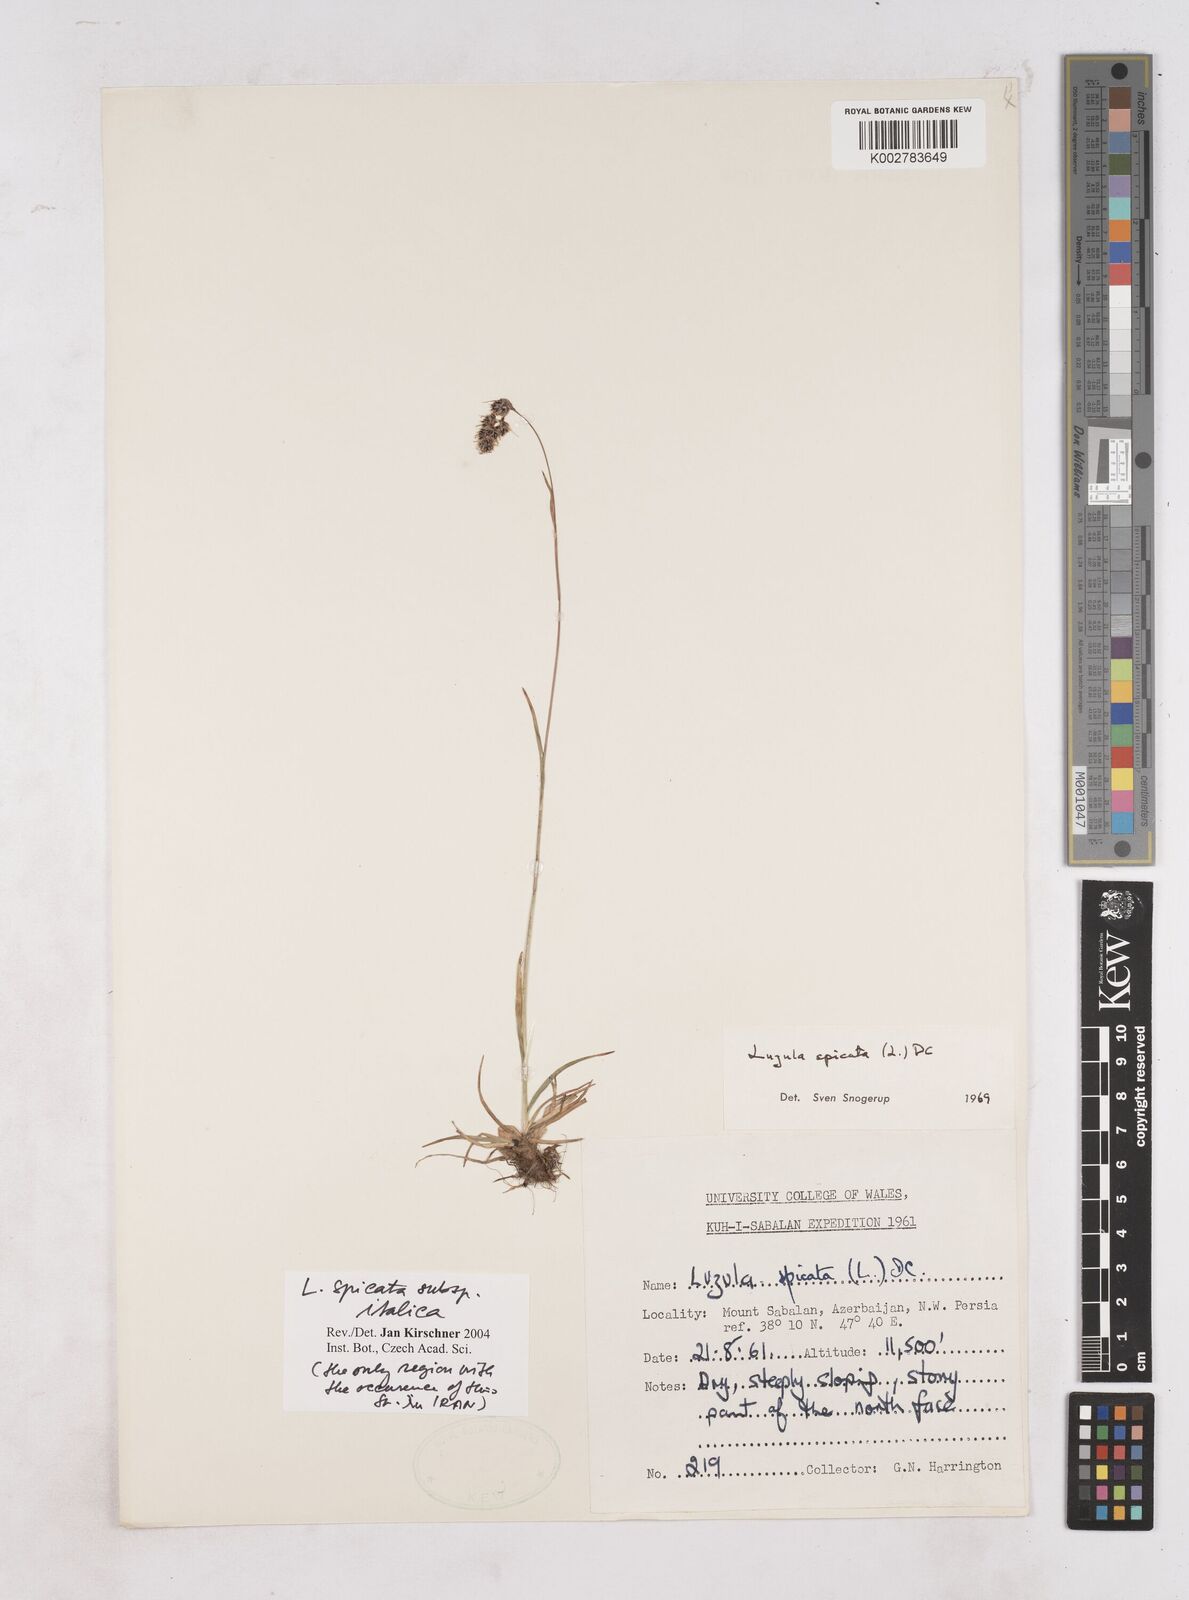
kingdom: Plantae
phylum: Tracheophyta
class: Liliopsida
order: Poales
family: Juncaceae
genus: Luzula
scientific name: Luzula spicata
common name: Spiked wood-rush
